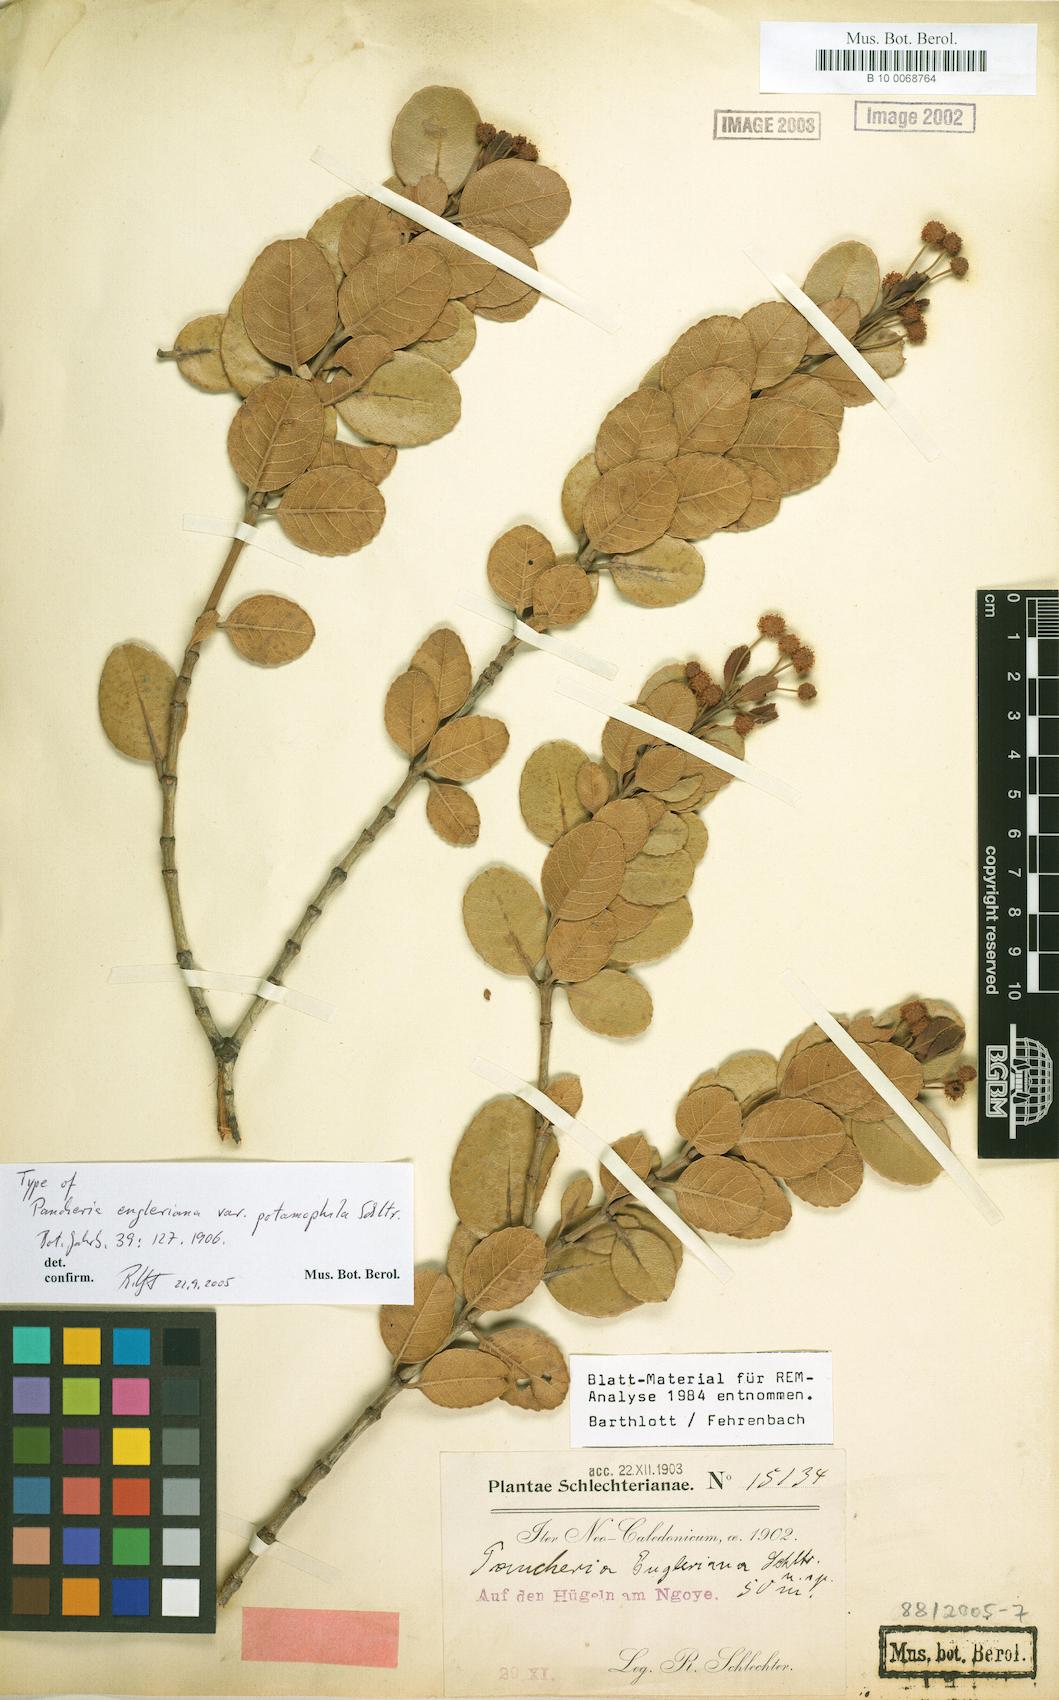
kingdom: Plantae
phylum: Tracheophyta
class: Magnoliopsida
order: Oxalidales
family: Cunoniaceae
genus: Pancheria
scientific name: Pancheria engleriana
